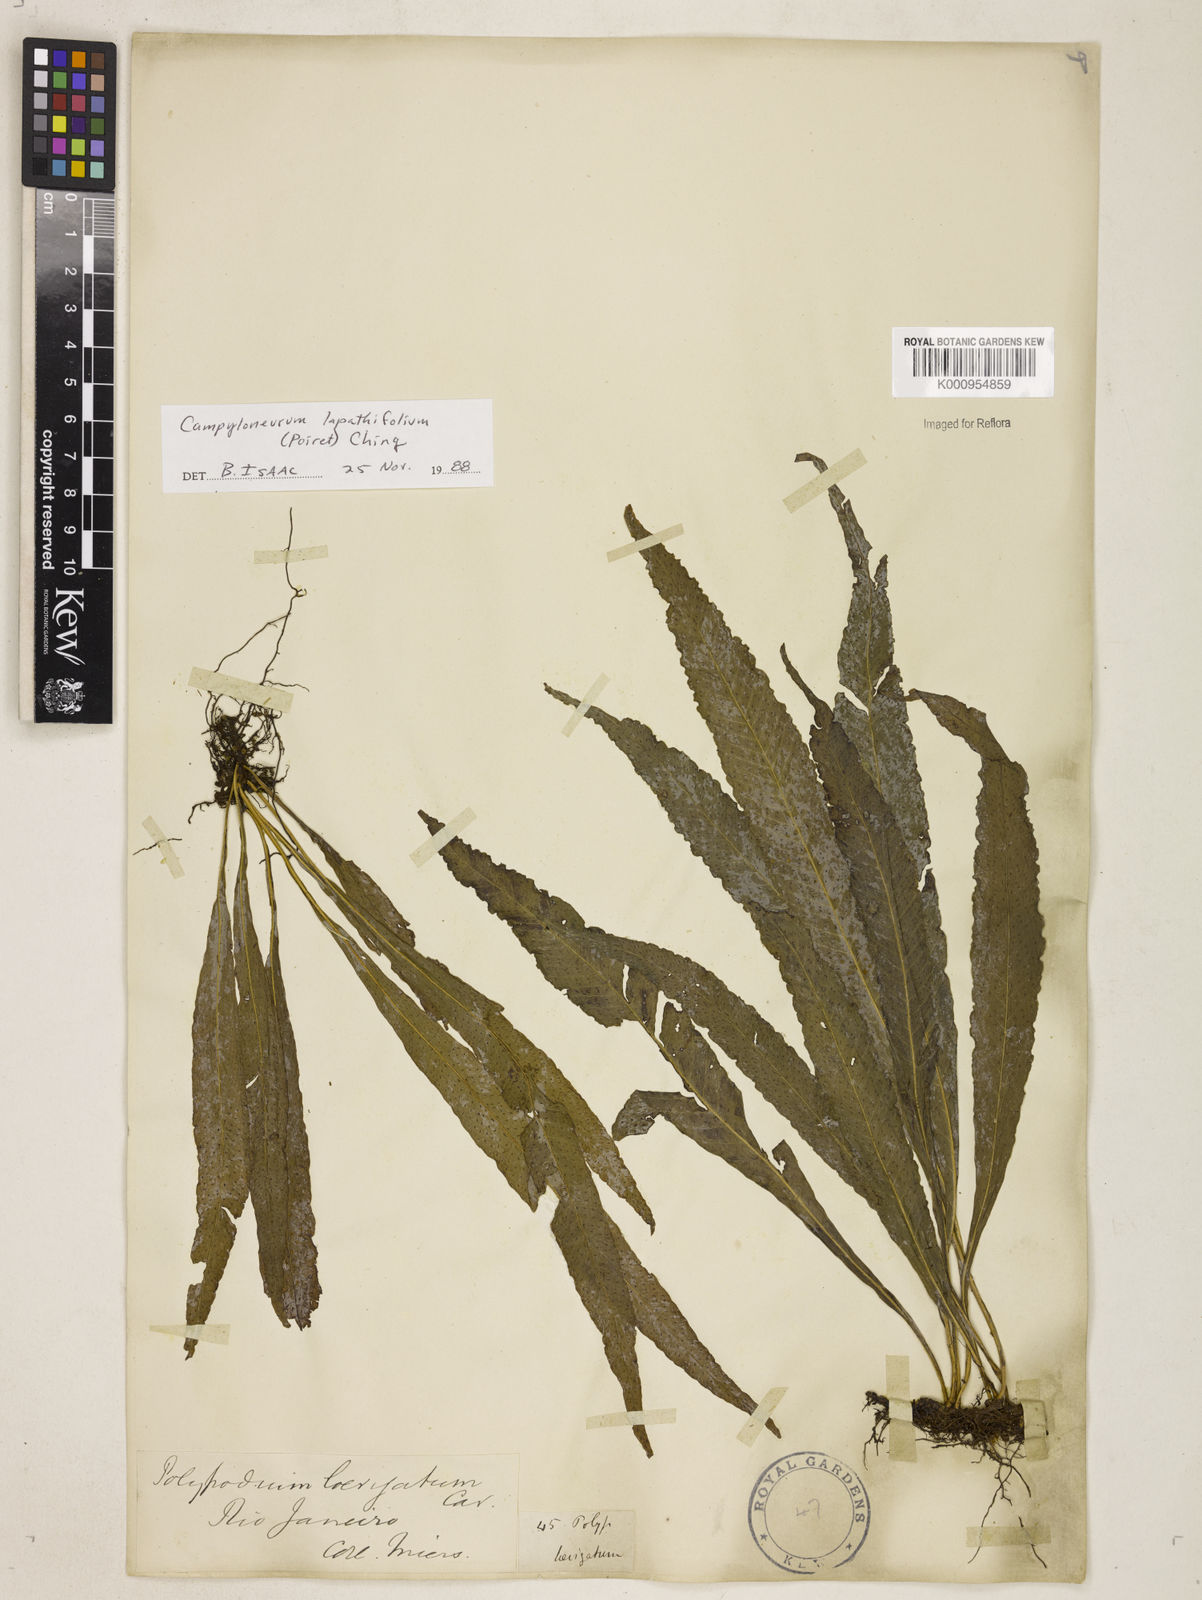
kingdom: Plantae
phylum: Tracheophyta
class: Polypodiopsida
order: Polypodiales
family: Polypodiaceae
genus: Campyloneurum
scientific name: Campyloneurum repens
